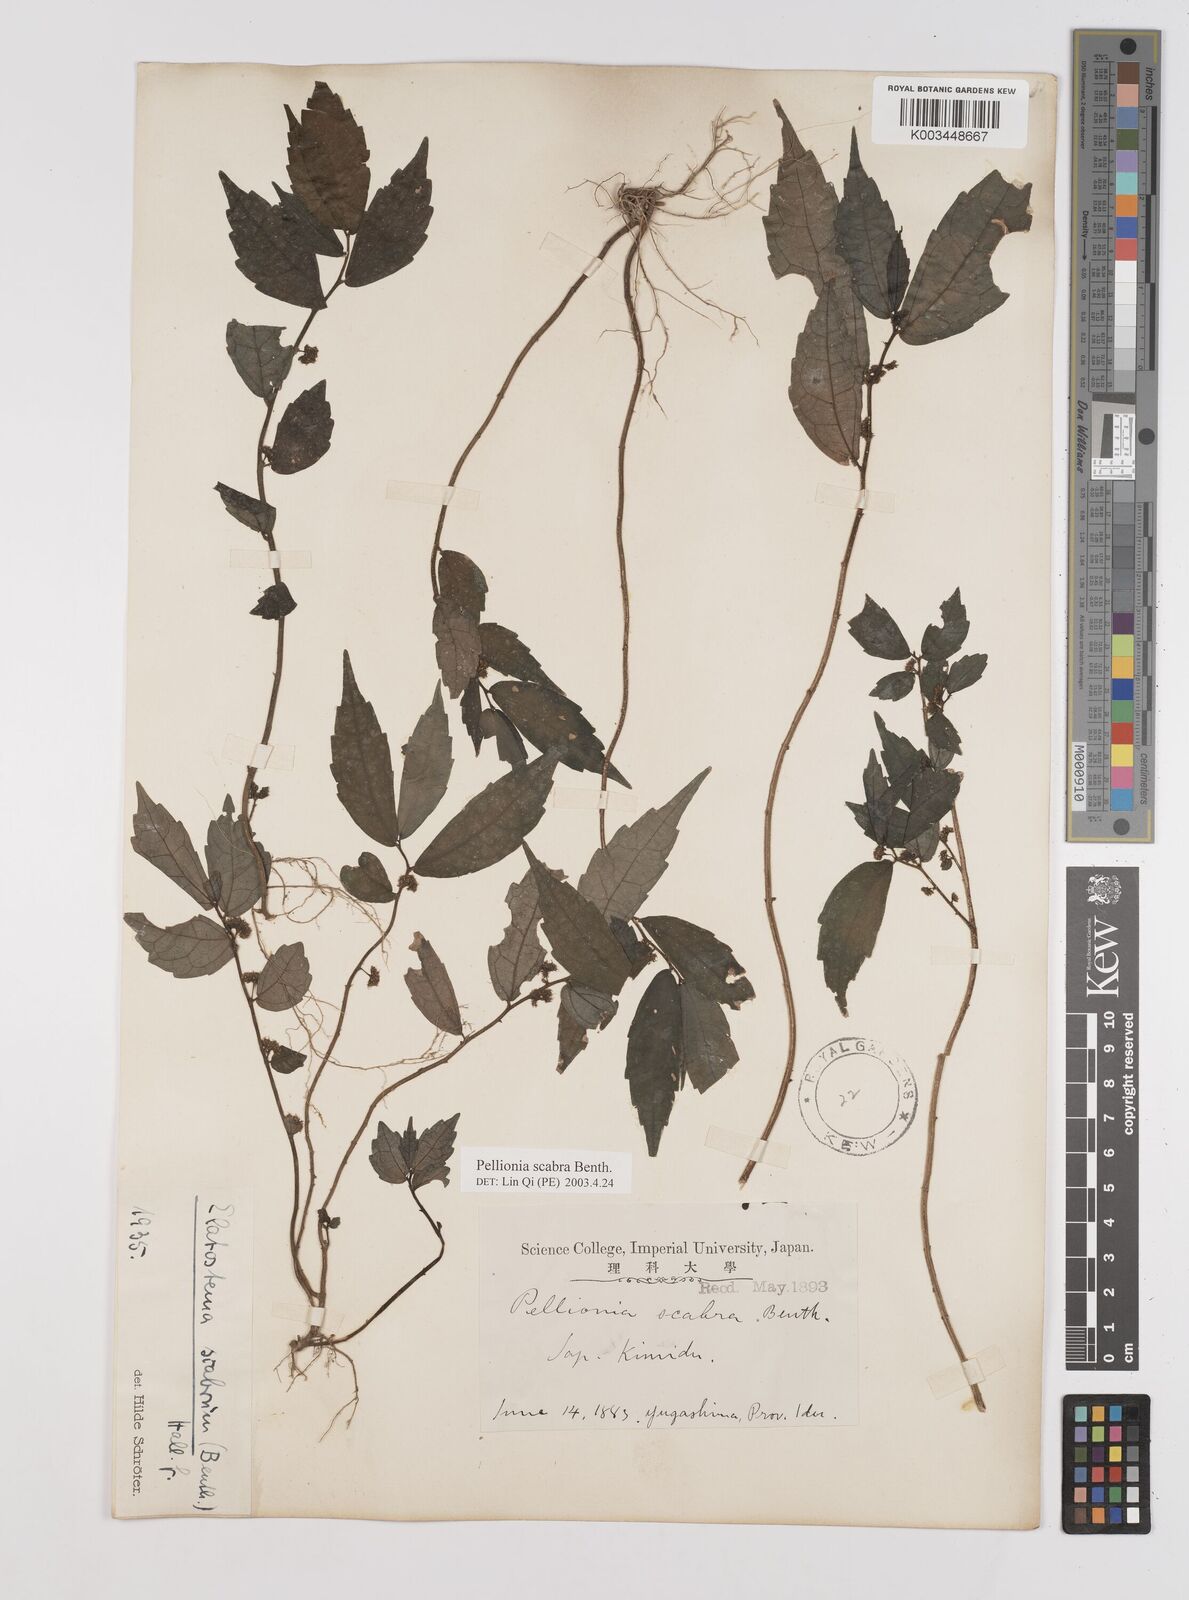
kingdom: Plantae
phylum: Tracheophyta
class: Magnoliopsida
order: Rosales
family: Urticaceae
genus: Elatostema
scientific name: Elatostema
